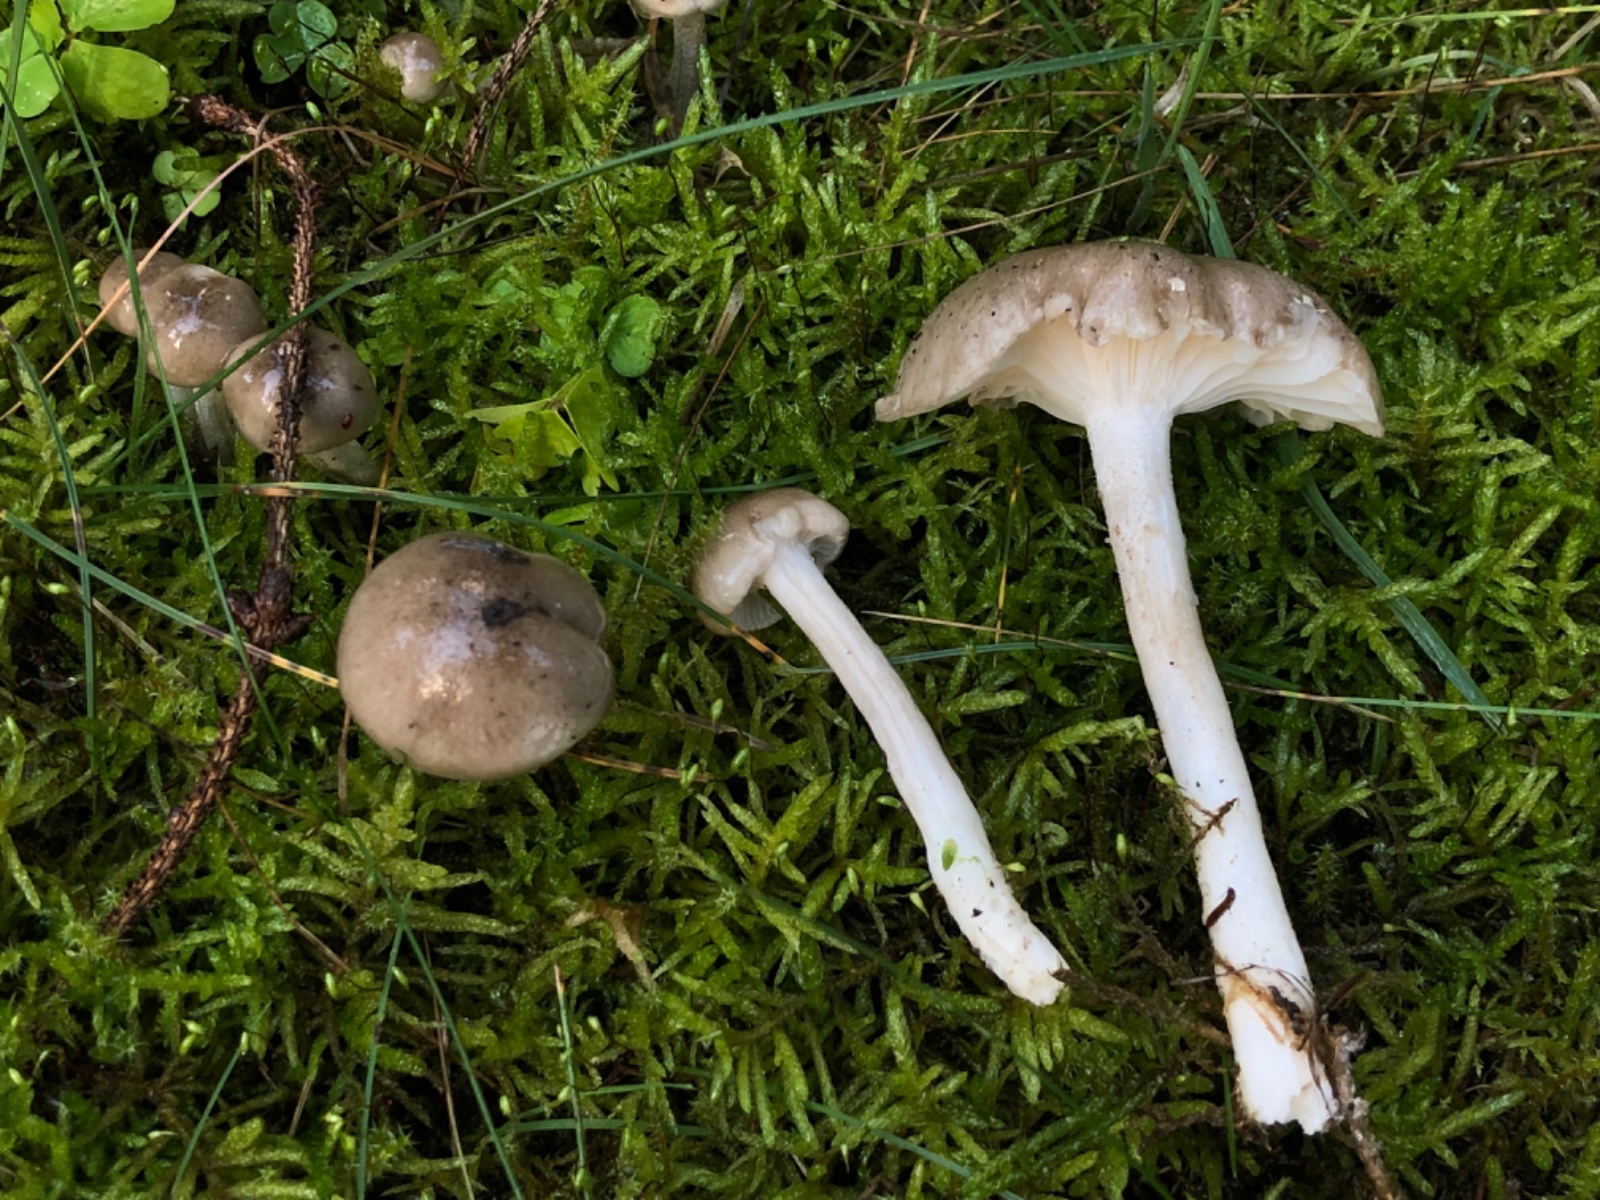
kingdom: Fungi
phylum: Basidiomycota
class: Agaricomycetes
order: Agaricales
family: Hygrophoraceae
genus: Hygrophorus
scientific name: Hygrophorus agathosmus
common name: vellugtende sneglehat
